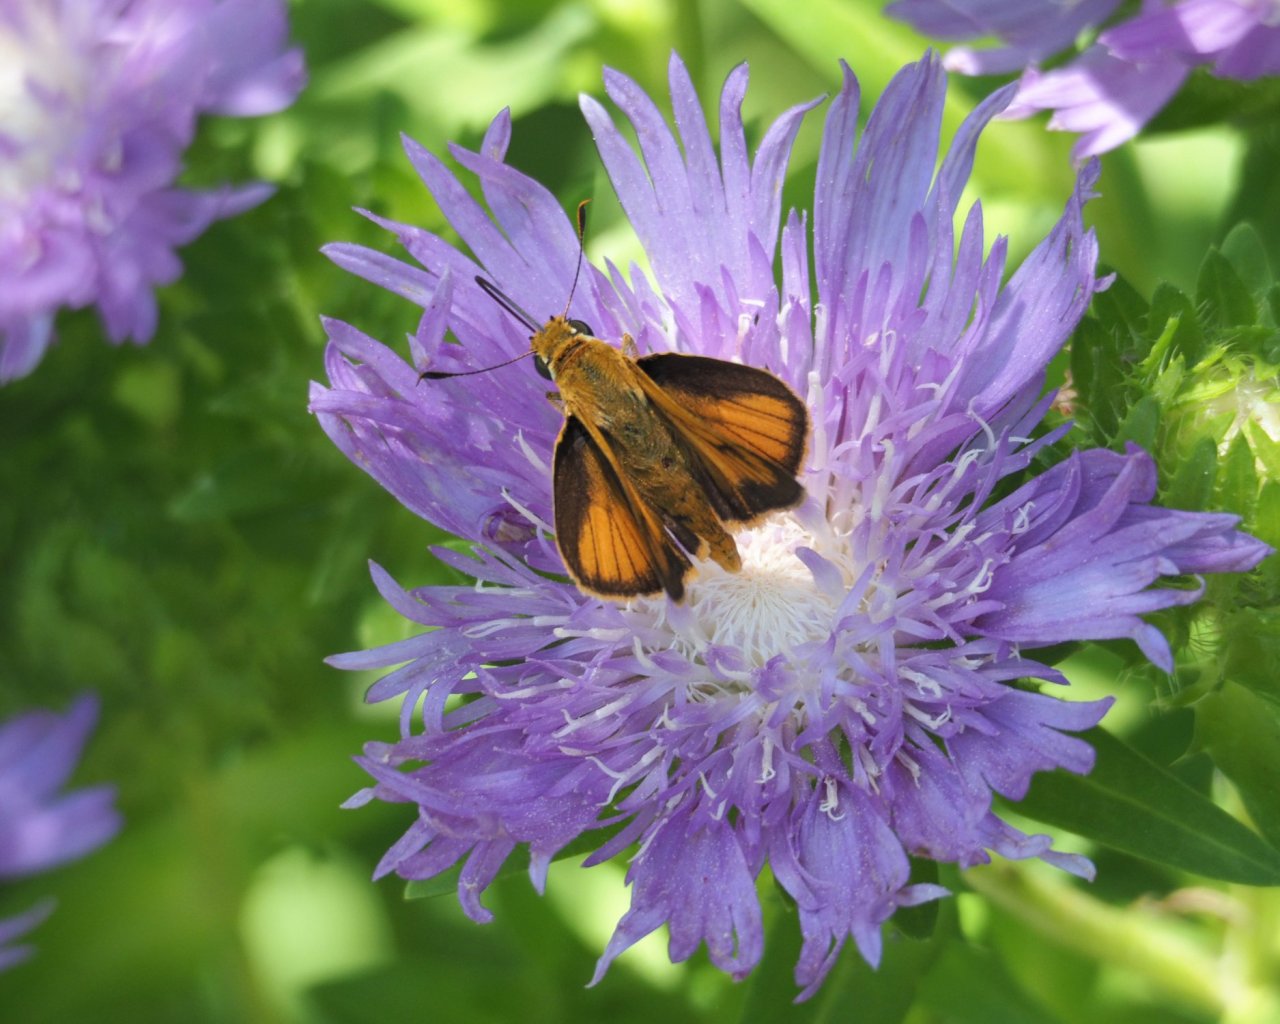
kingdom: Animalia
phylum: Arthropoda
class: Insecta
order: Lepidoptera
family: Hesperiidae
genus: Atrytone
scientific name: Atrytone delaware
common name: Delaware Skipper
